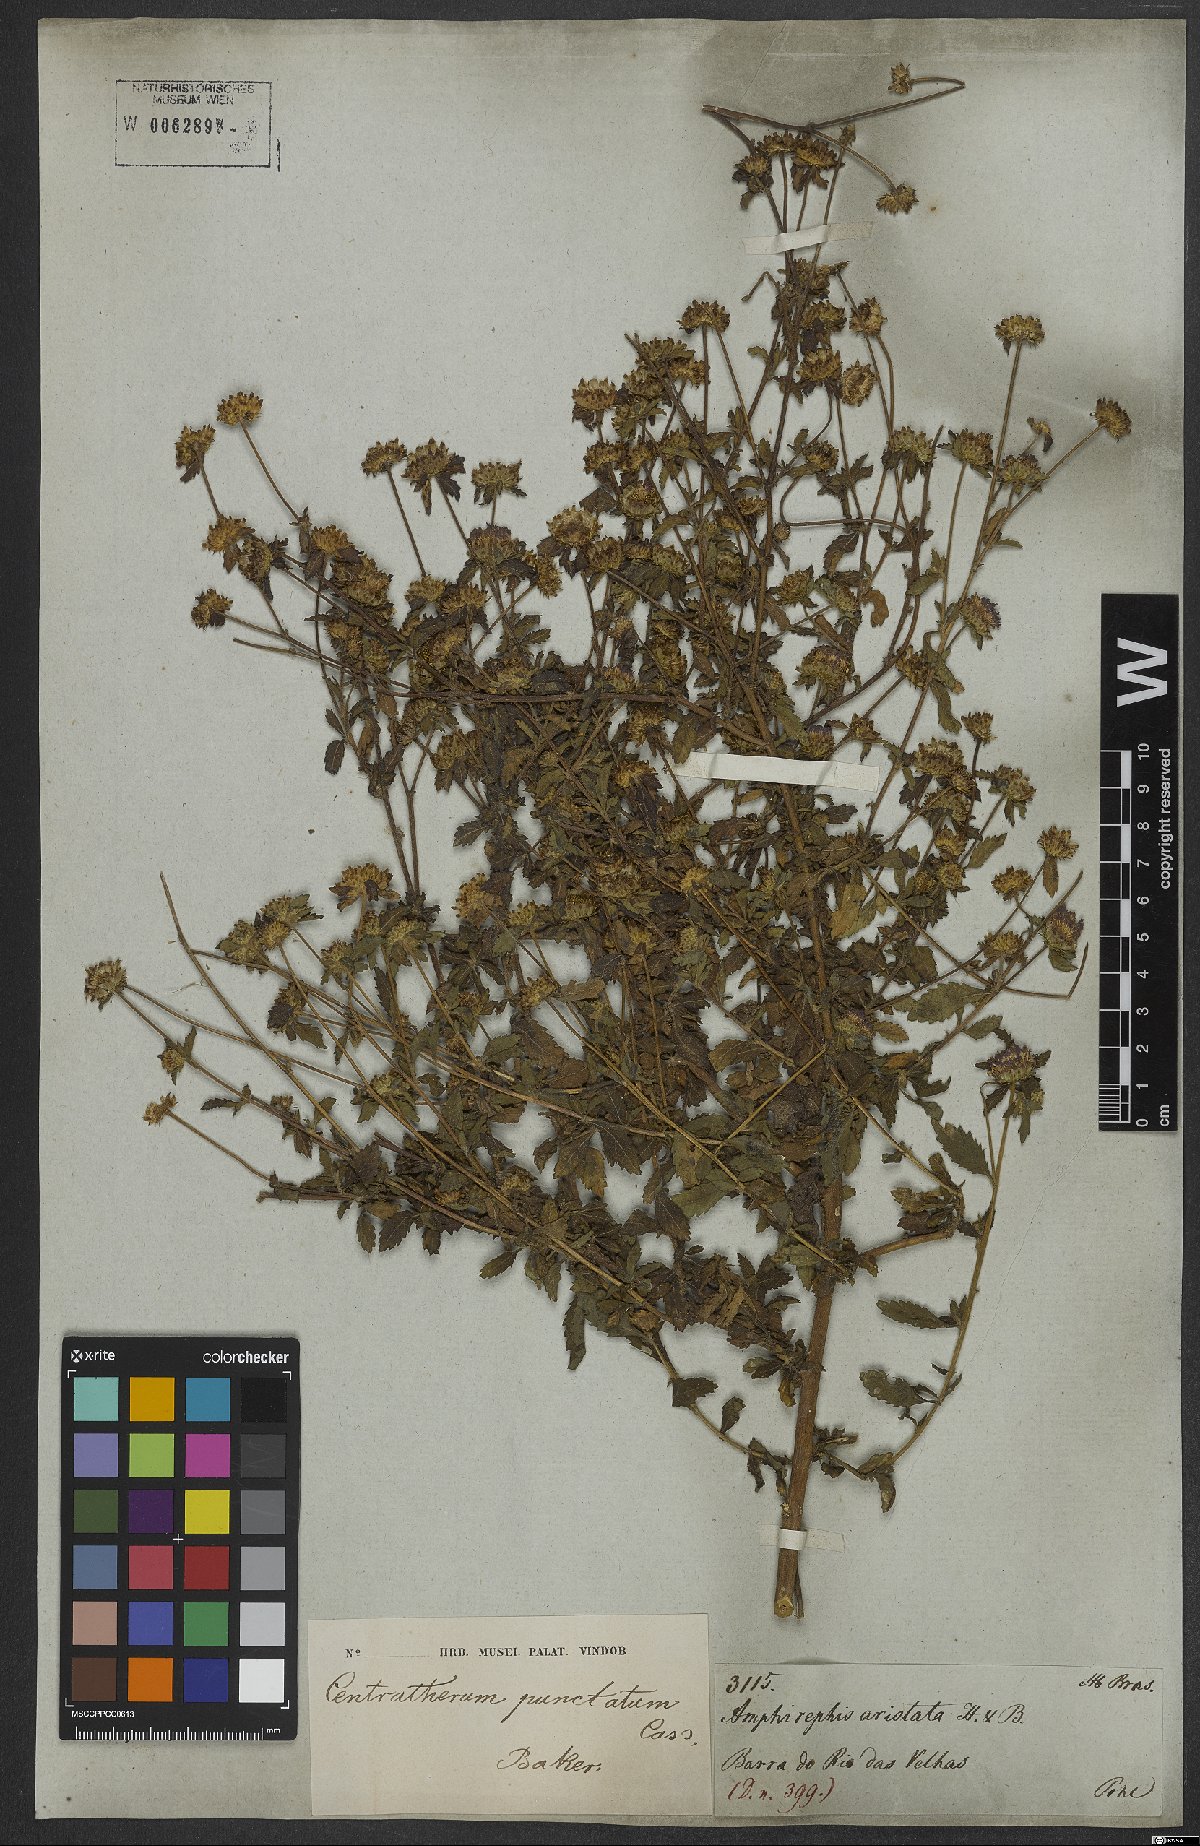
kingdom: Plantae
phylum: Tracheophyta
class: Magnoliopsida
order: Asterales
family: Asteraceae
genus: Centratherum
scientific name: Centratherum punctatum
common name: Larkdaisy
